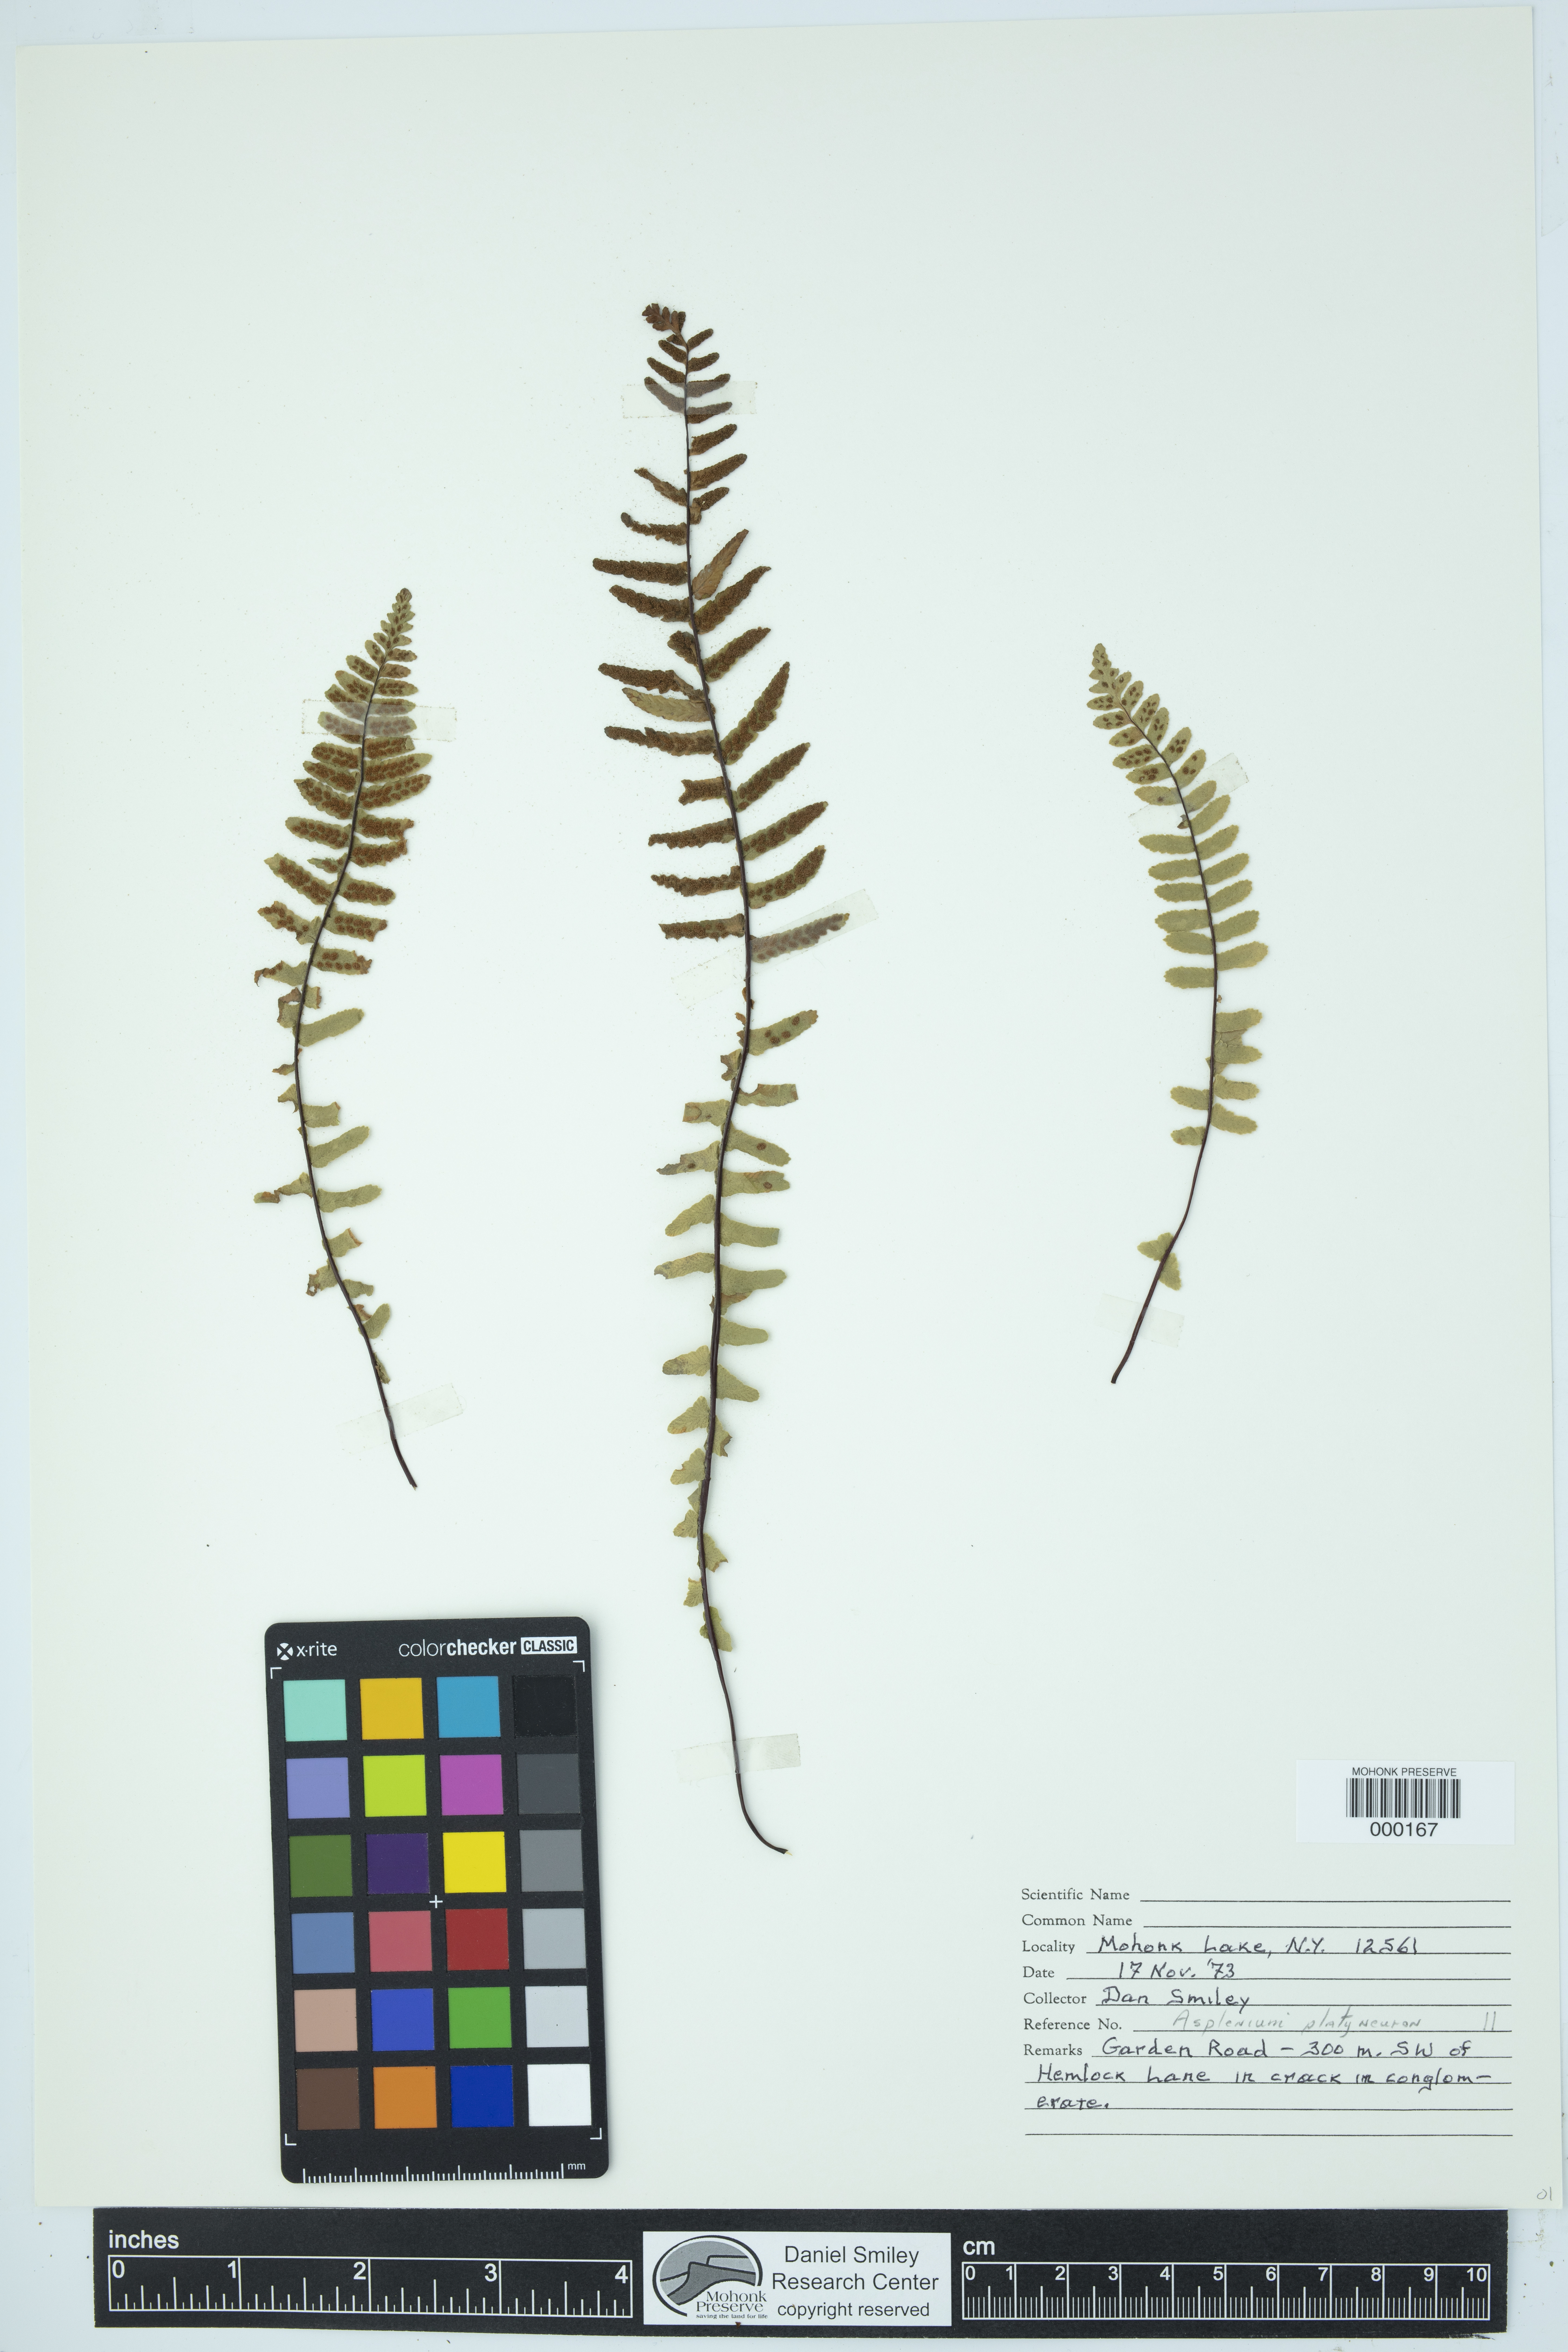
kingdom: Plantae
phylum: Tracheophyta
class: Polypodiopsida
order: Polypodiales
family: Aspleniaceae
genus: Asplenium
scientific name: Asplenium platyneuron
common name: Ebony spleenwort
